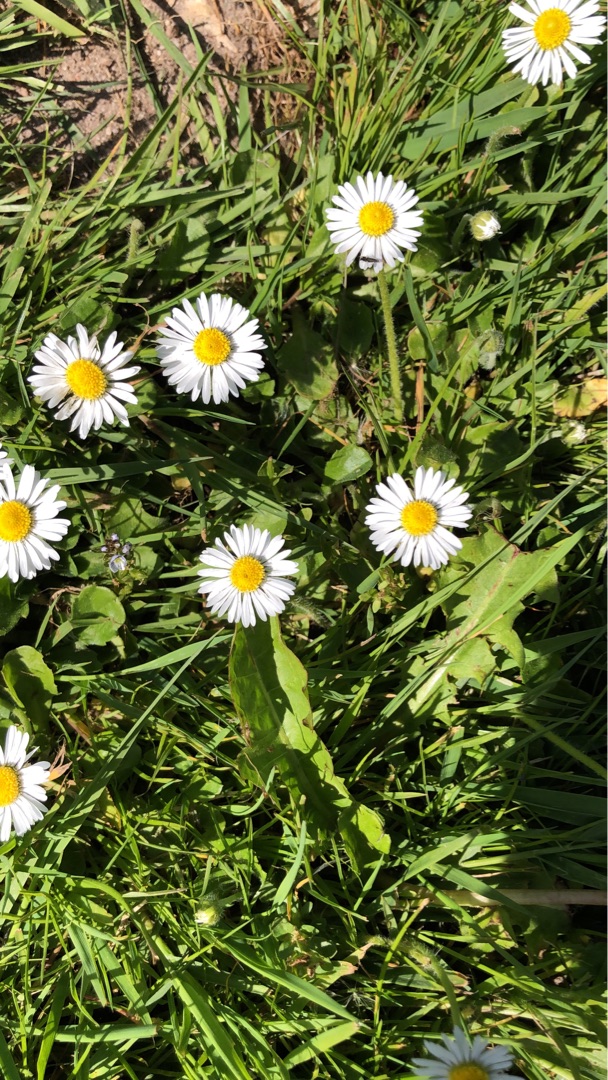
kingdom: Plantae
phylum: Tracheophyta
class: Magnoliopsida
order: Asterales
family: Asteraceae
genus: Bellis
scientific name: Bellis perennis
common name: Tusindfryd
